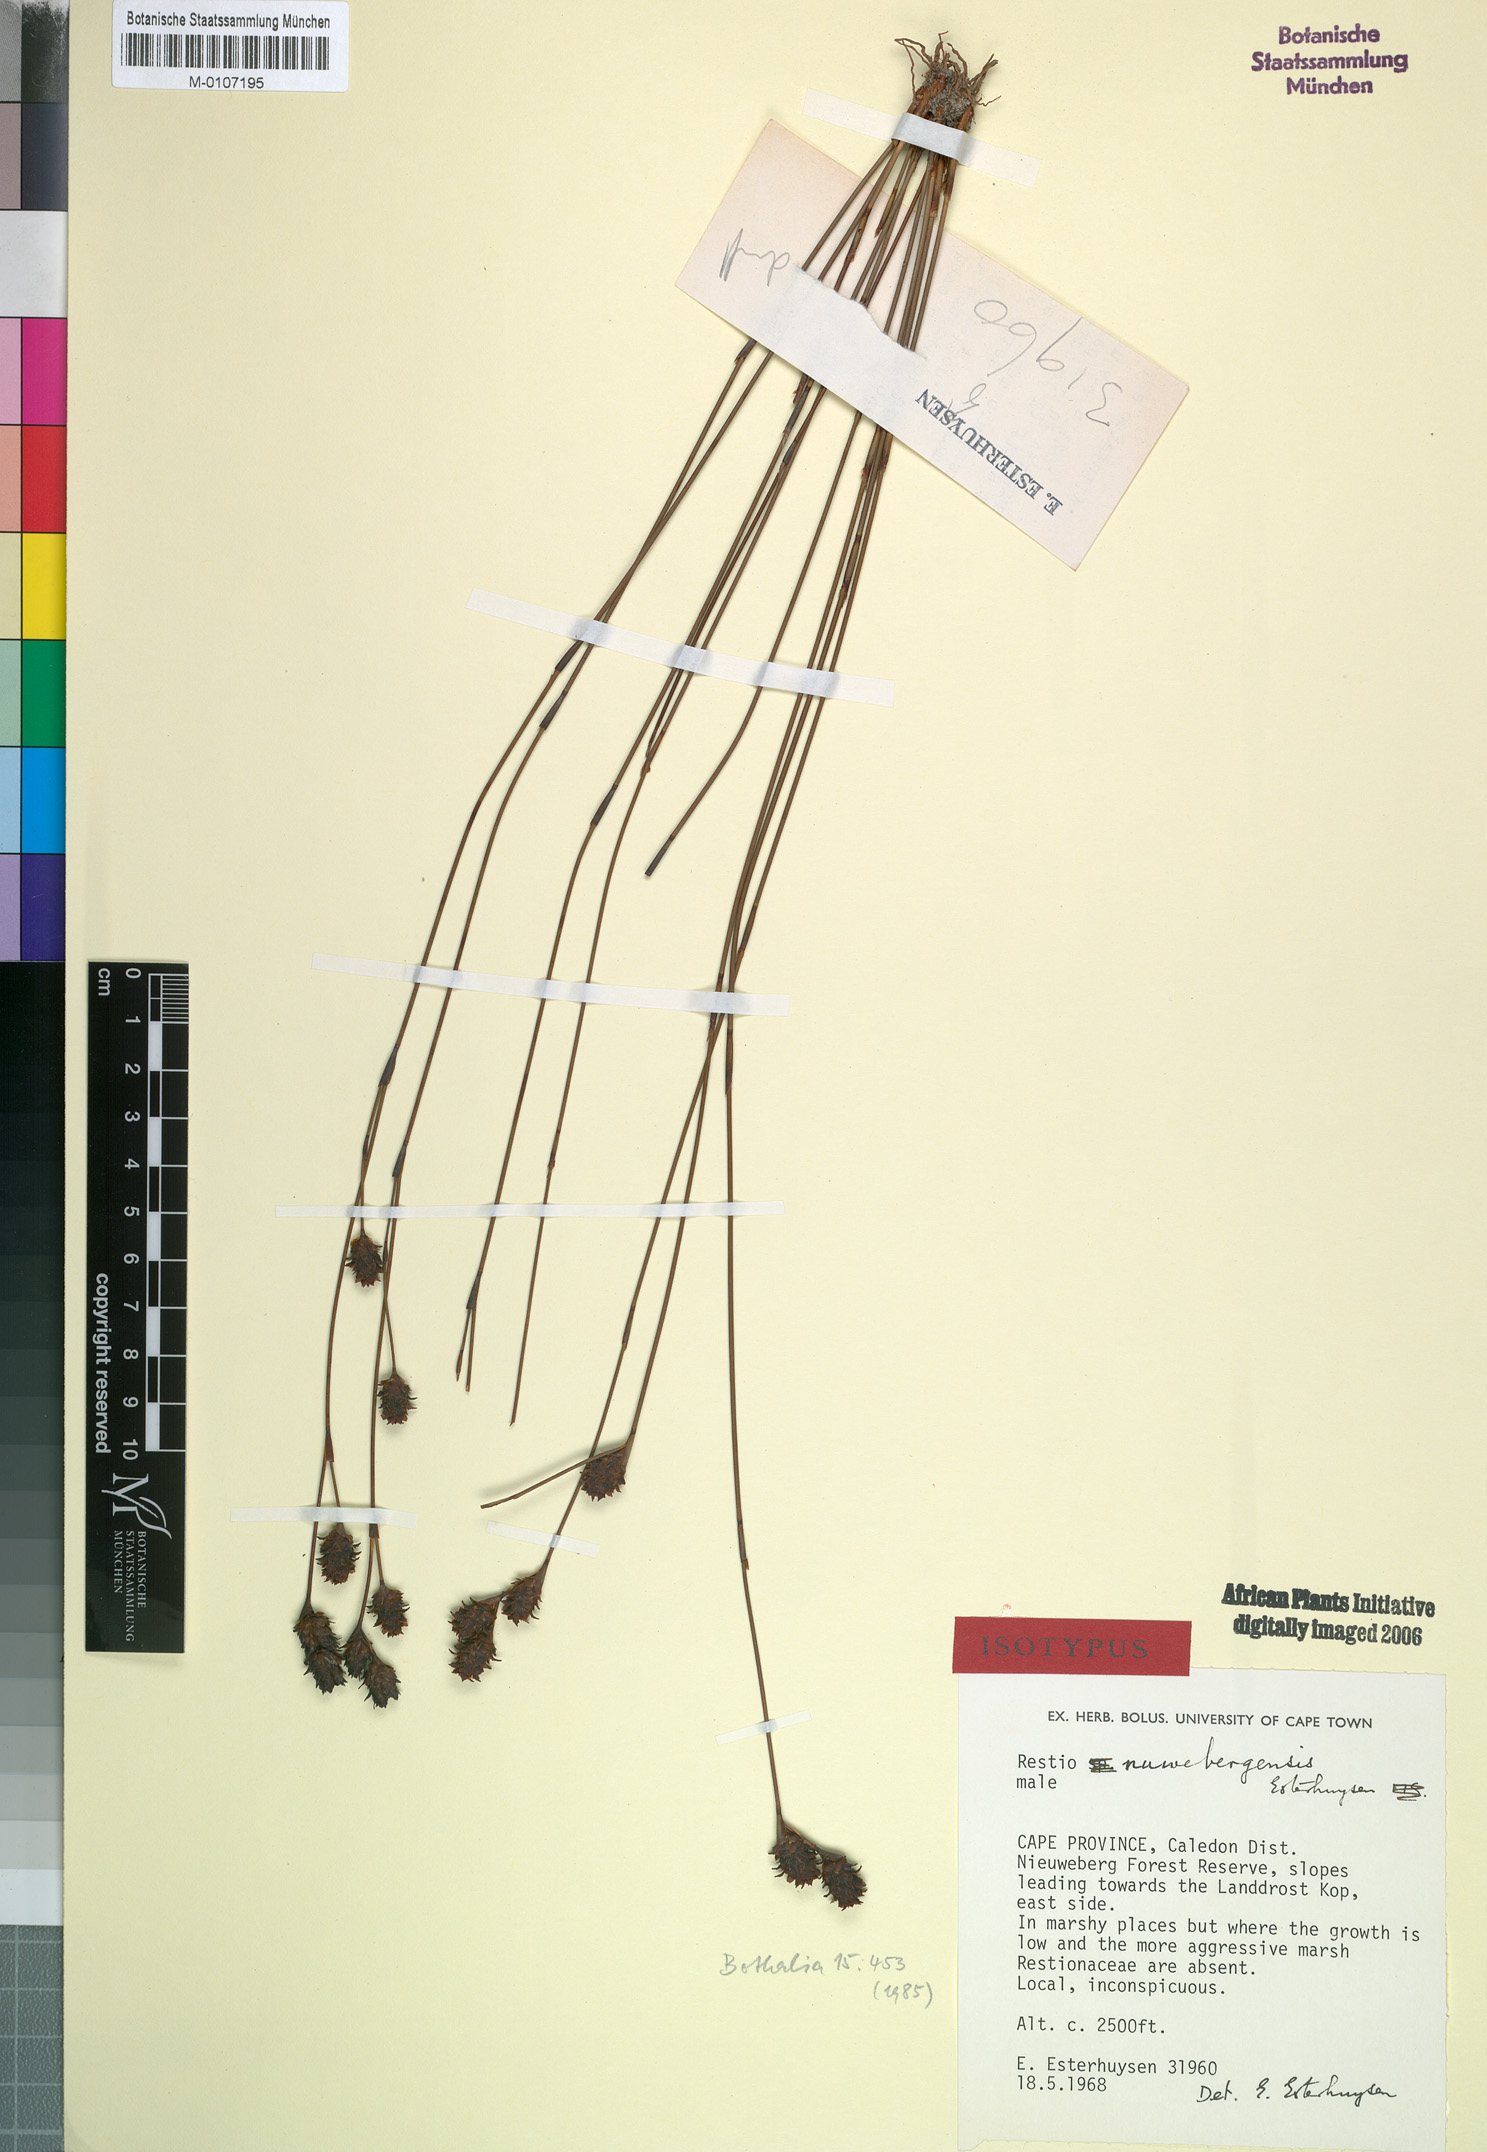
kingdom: Plantae
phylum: Tracheophyta
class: Liliopsida
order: Poales
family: Restionaceae
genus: Restio
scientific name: Restio nuwebergensis
